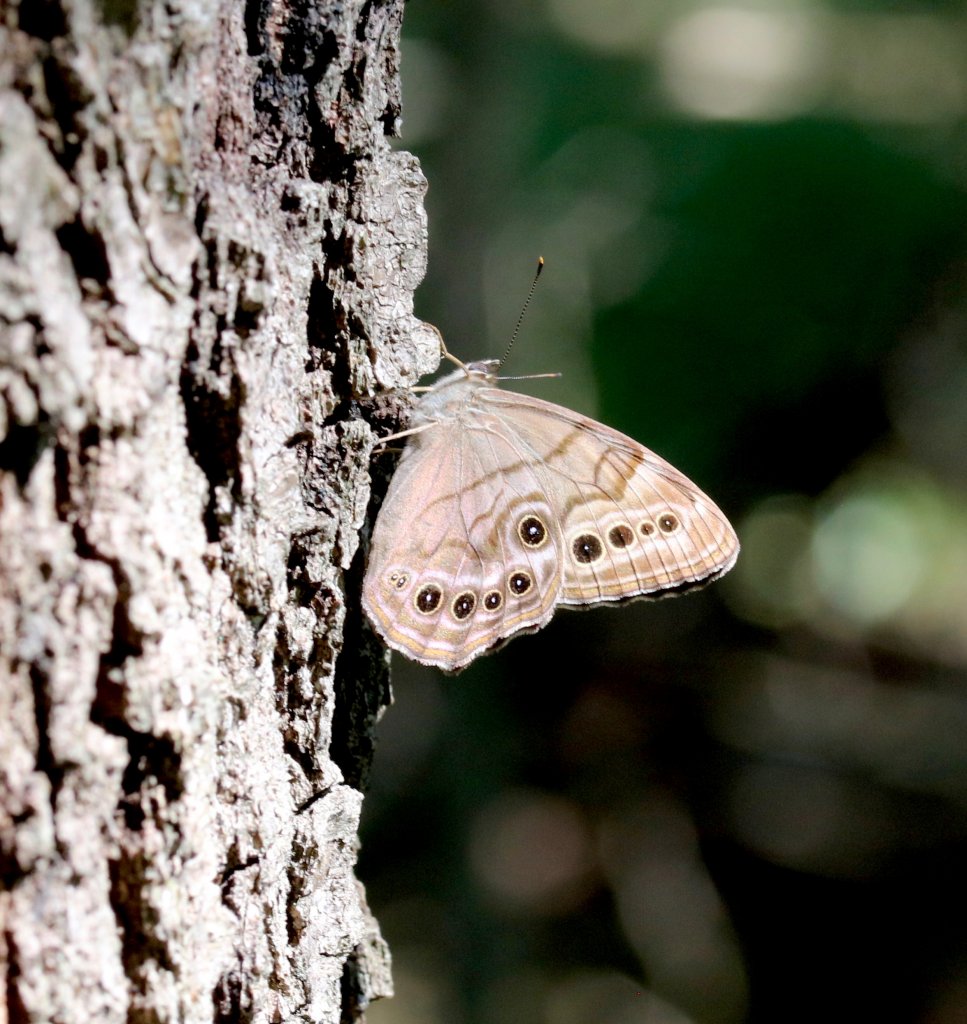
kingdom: Animalia
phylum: Arthropoda
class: Insecta
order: Lepidoptera
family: Nymphalidae
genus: Lethe
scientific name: Lethe anthedon
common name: Northern Pearly-Eye
